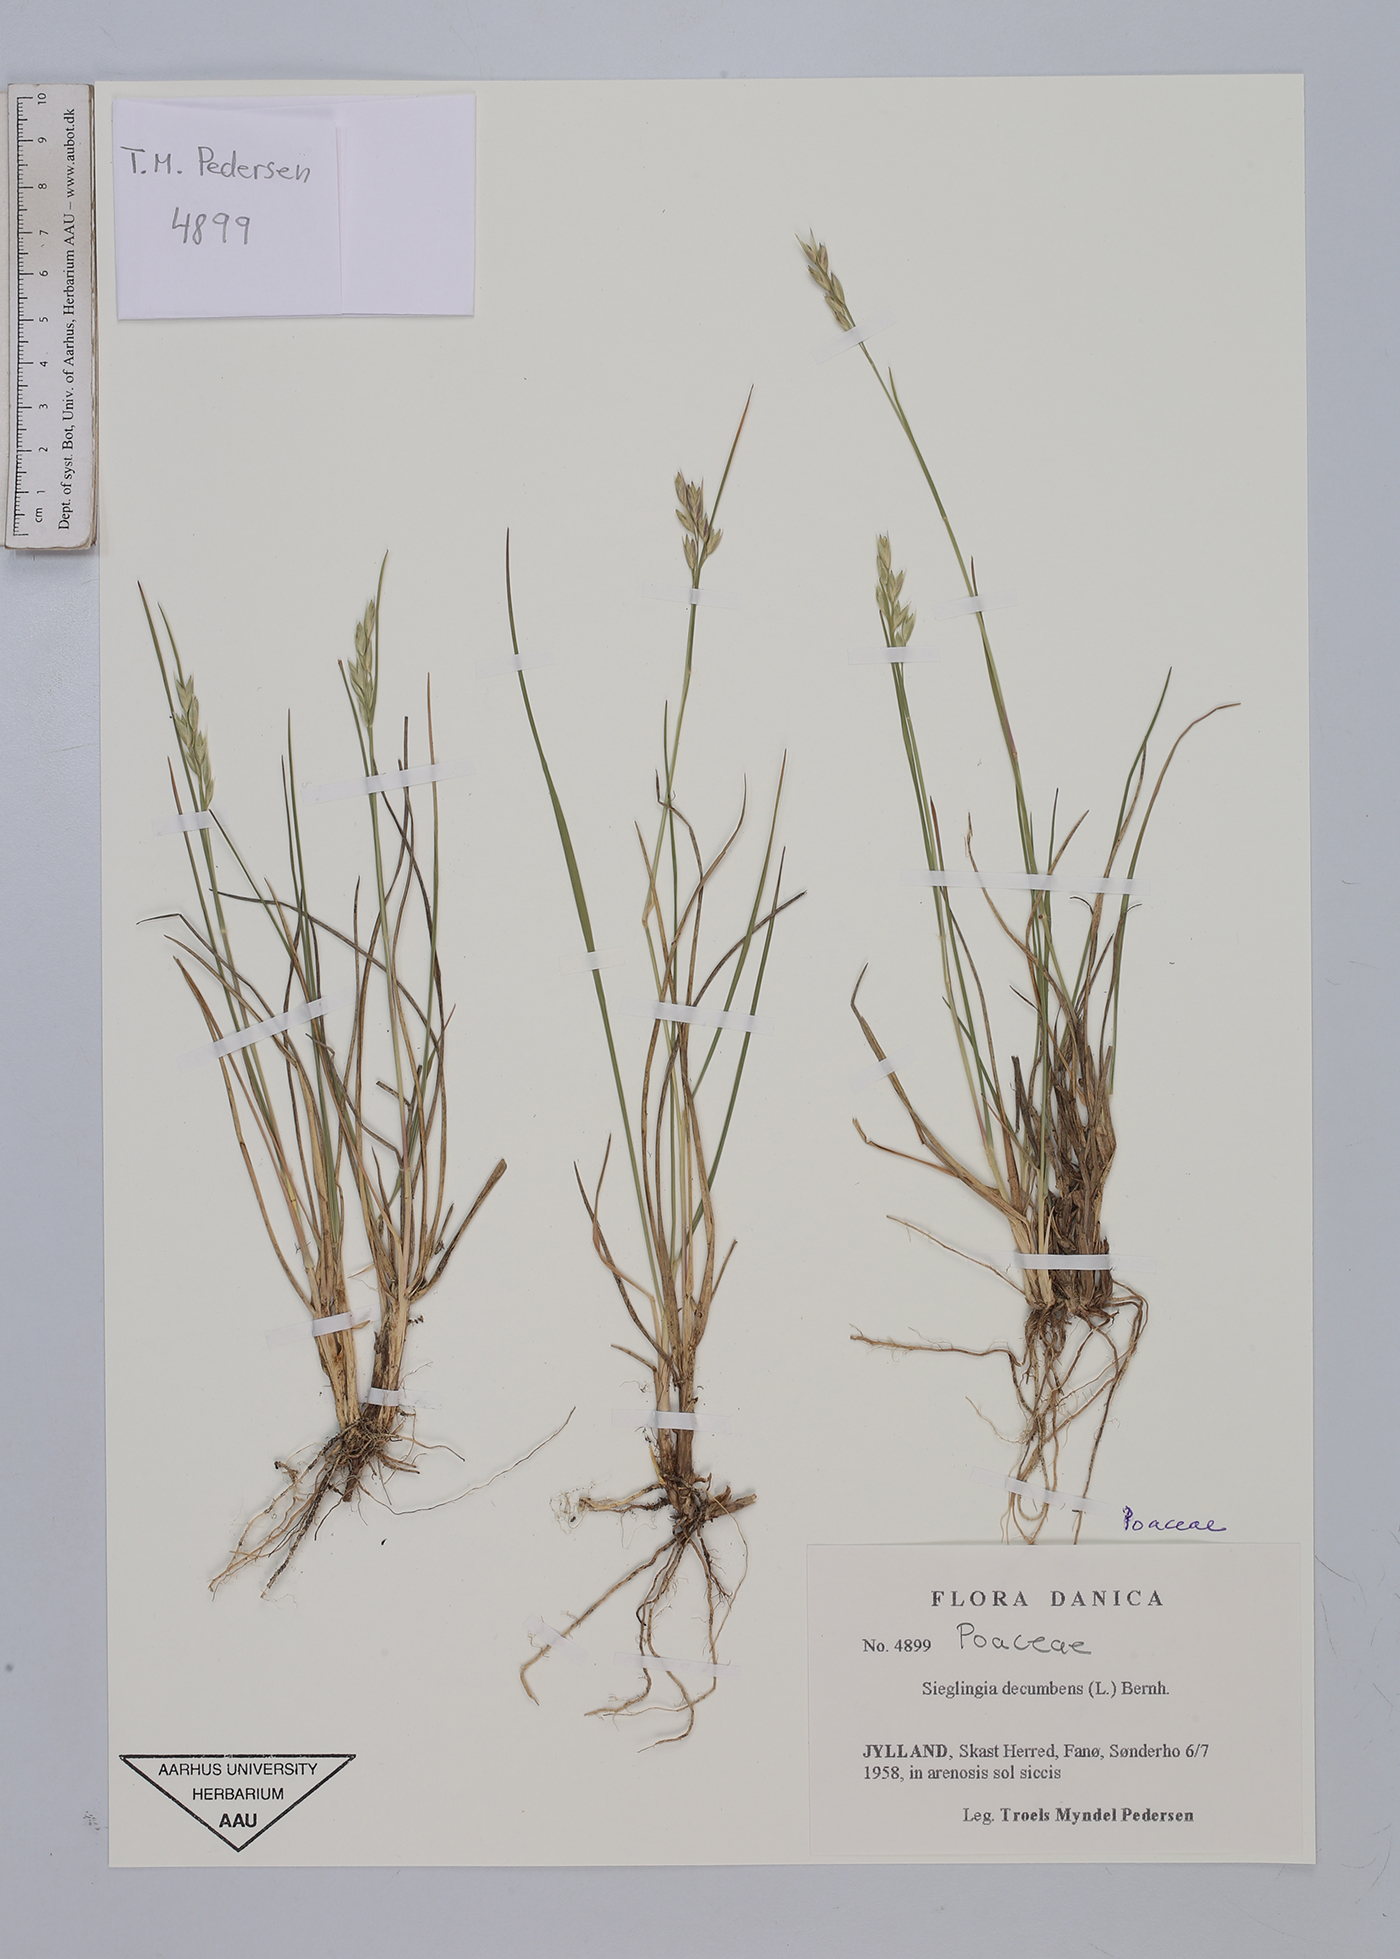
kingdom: Plantae
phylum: Tracheophyta
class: Liliopsida
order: Poales
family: Poaceae
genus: Danthonia
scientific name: Danthonia decumbens
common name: Common heathgrass
